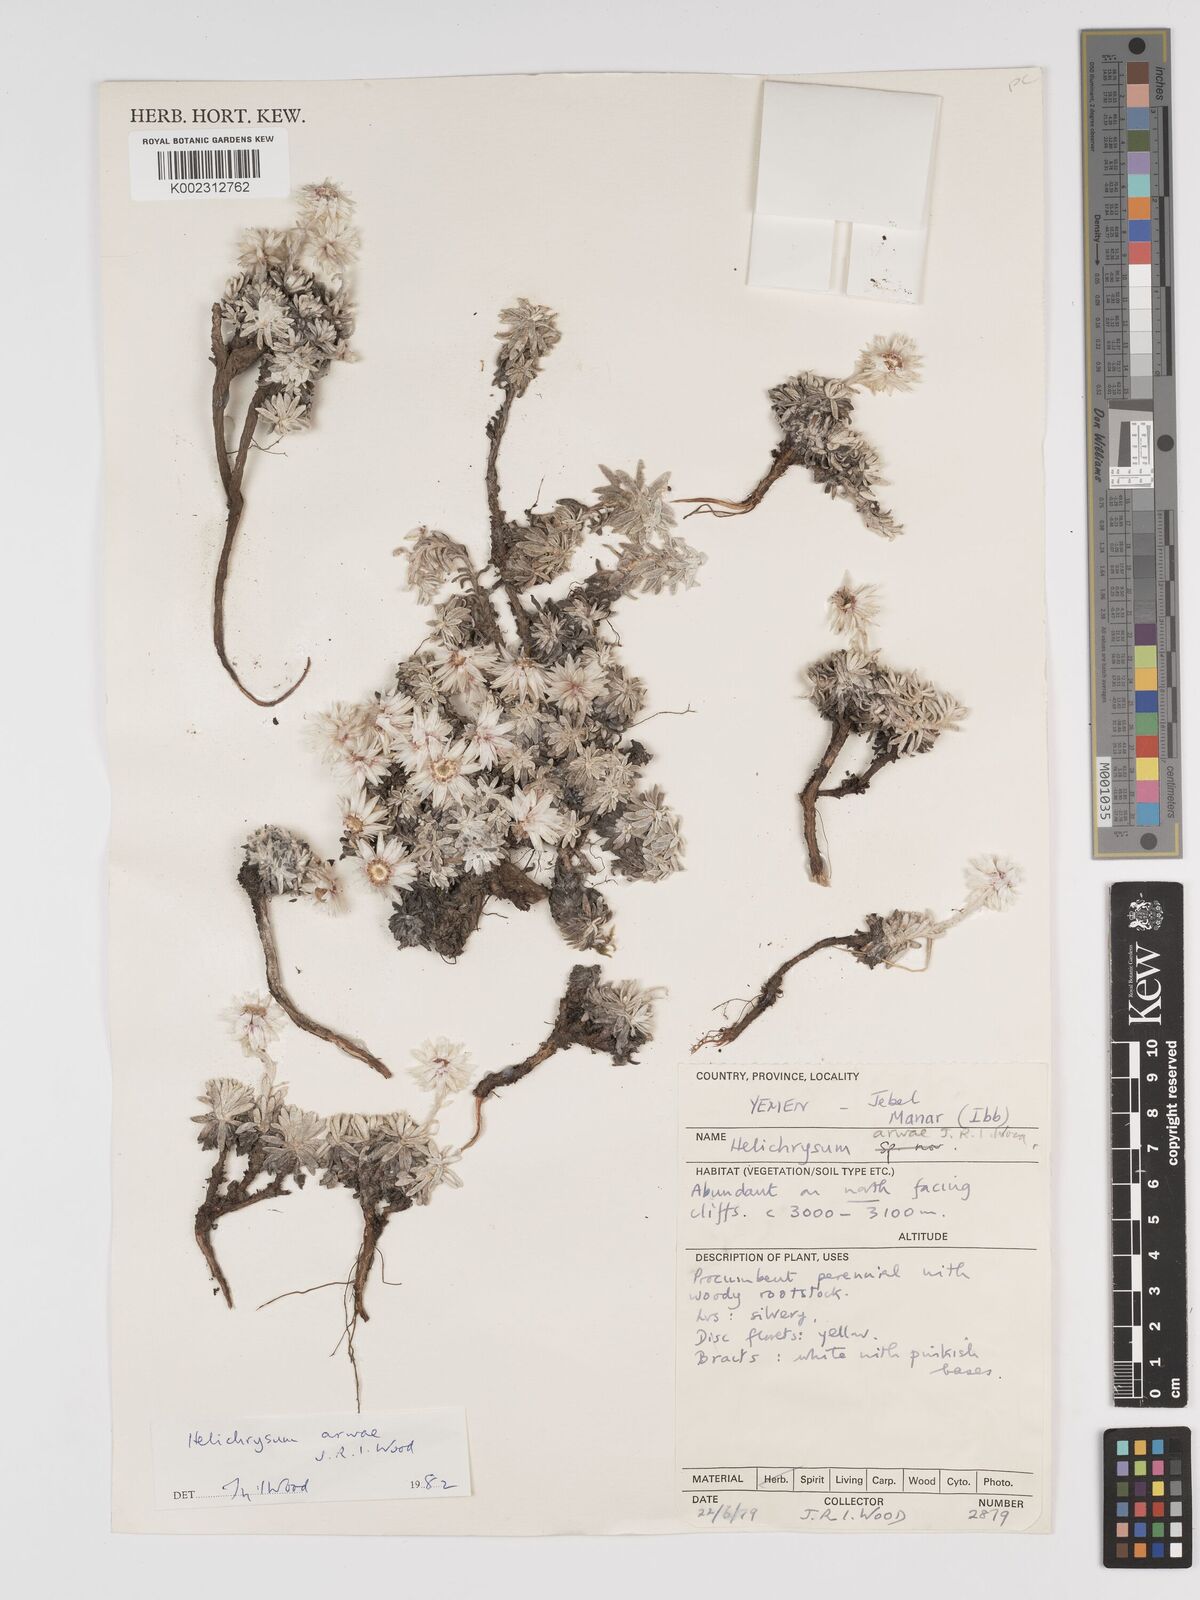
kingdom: Plantae
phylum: Tracheophyta
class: Magnoliopsida
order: Asterales
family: Asteraceae
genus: Helichrysum
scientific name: Helichrysum arwae
